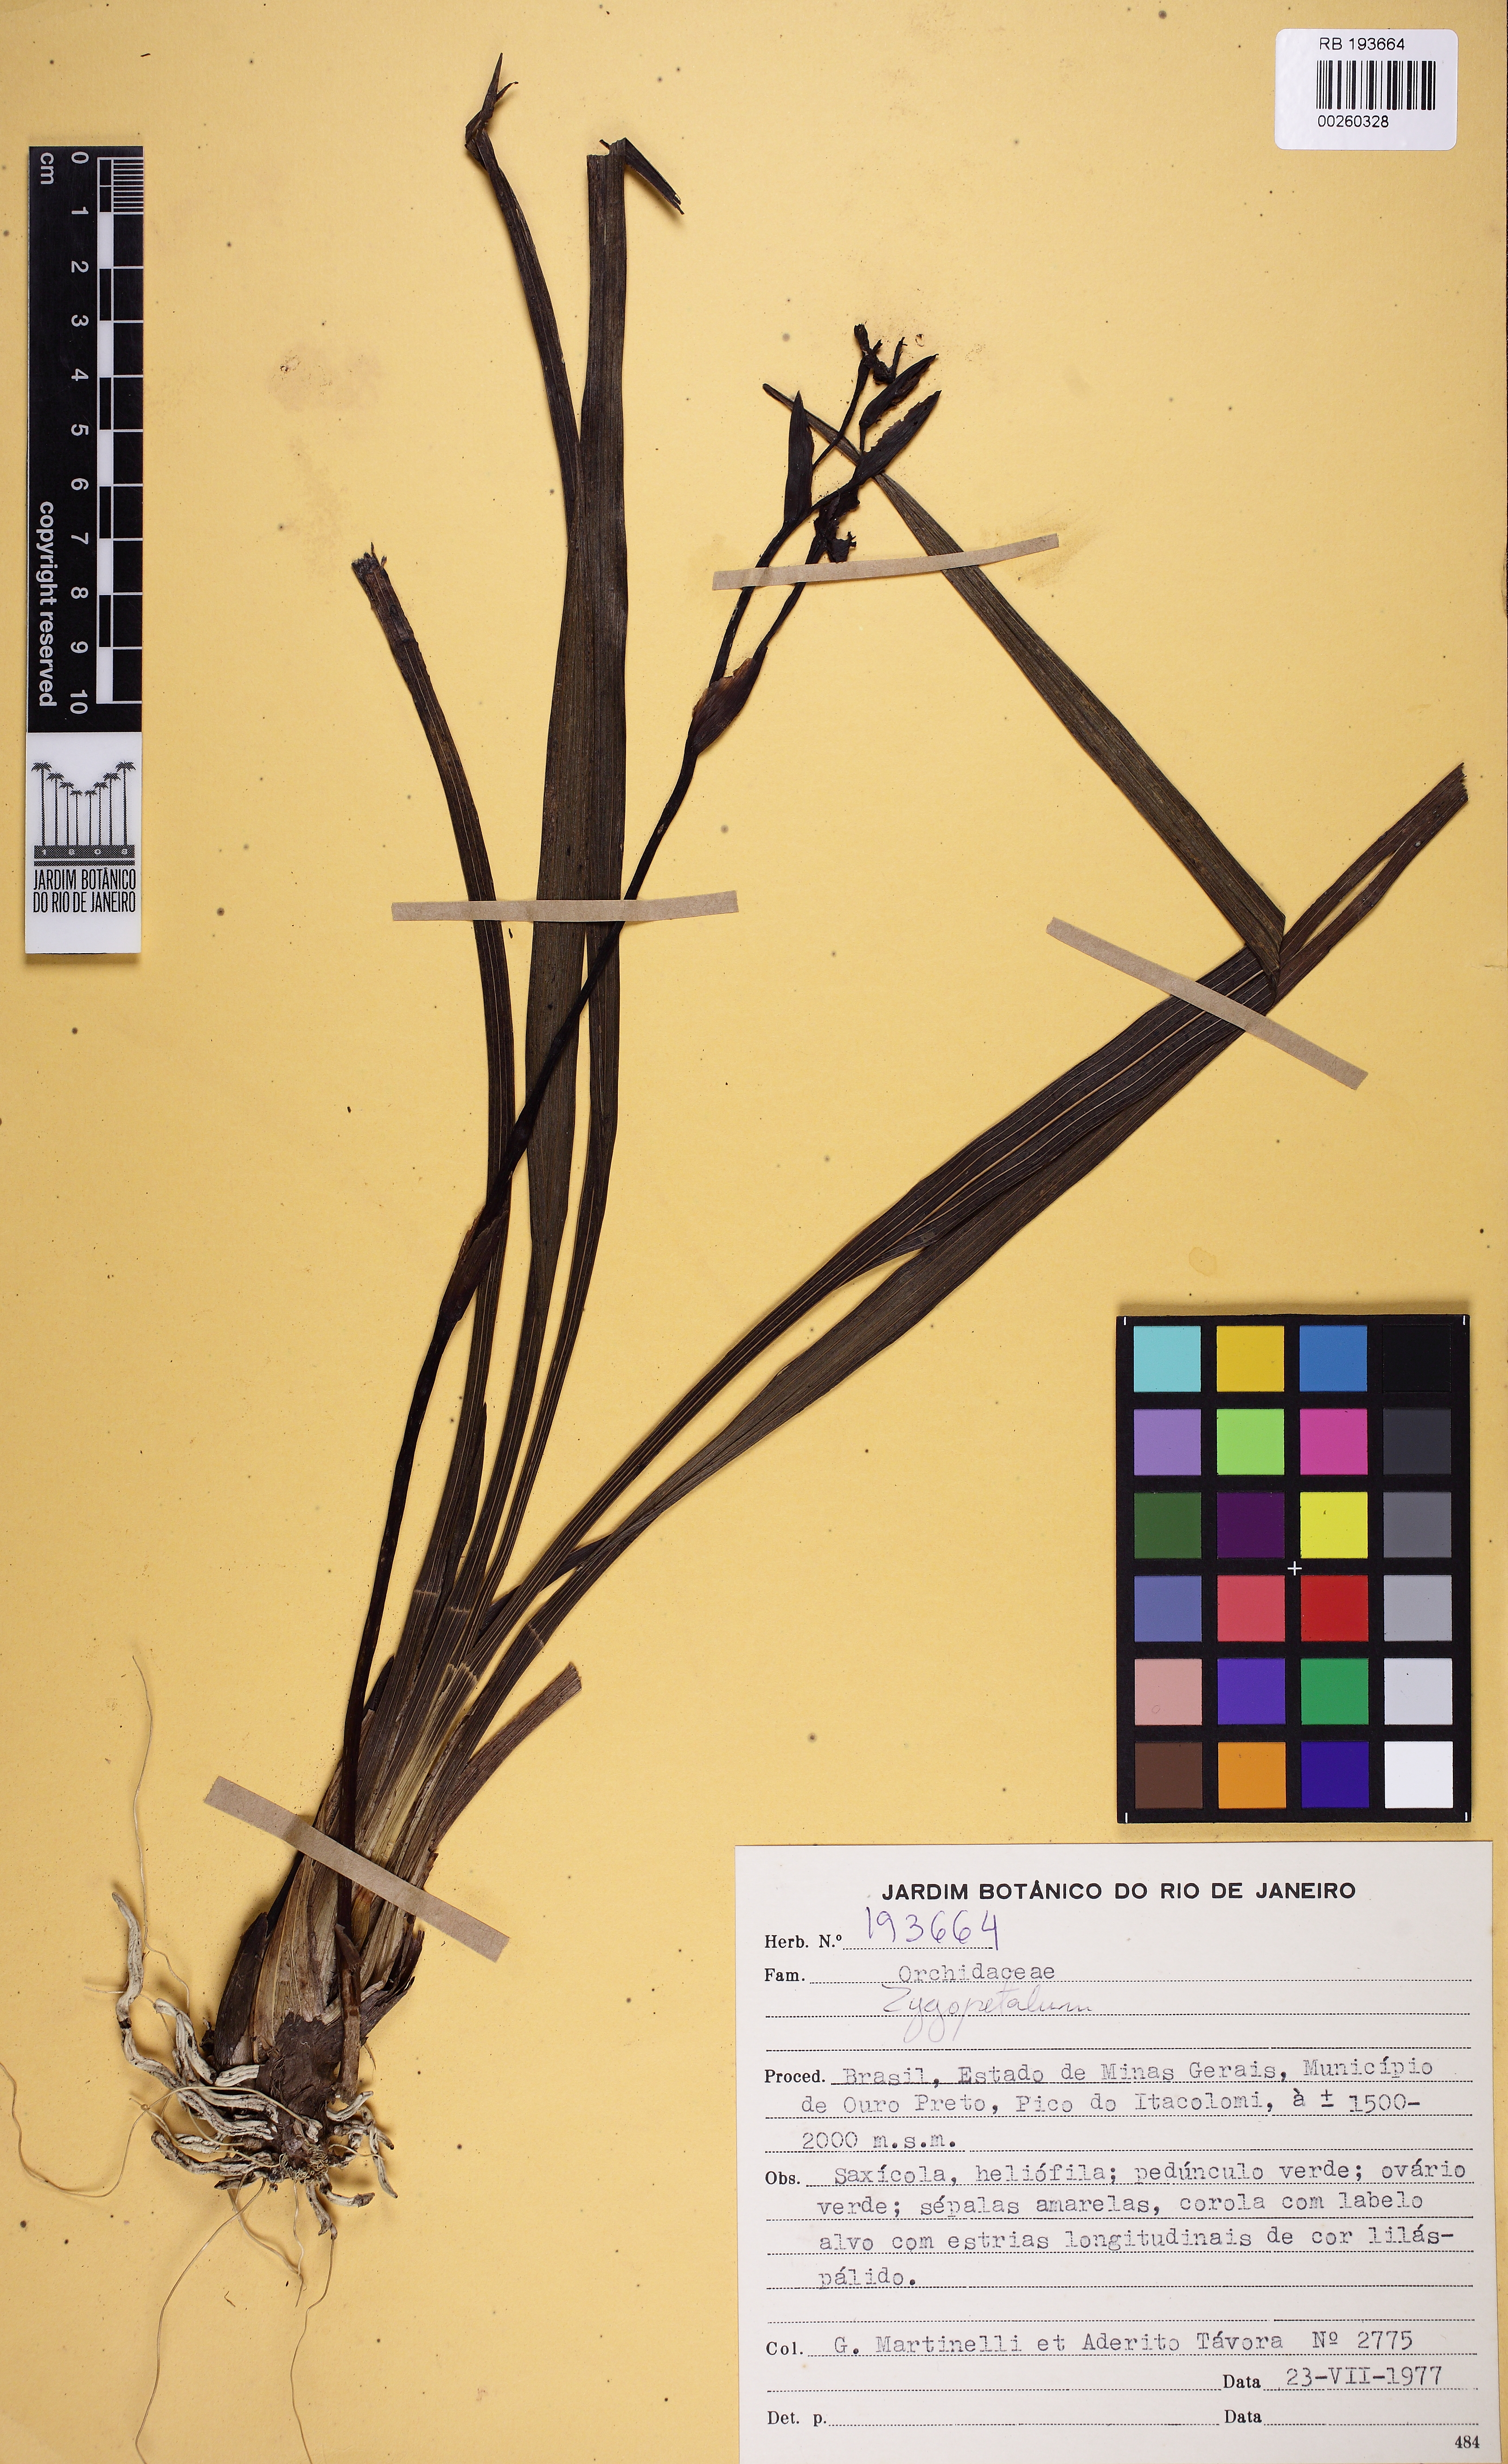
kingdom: Plantae
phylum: Tracheophyta
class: Liliopsida
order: Asparagales
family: Orchidaceae
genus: Zygopetalum
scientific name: Zygopetalum maculatum
